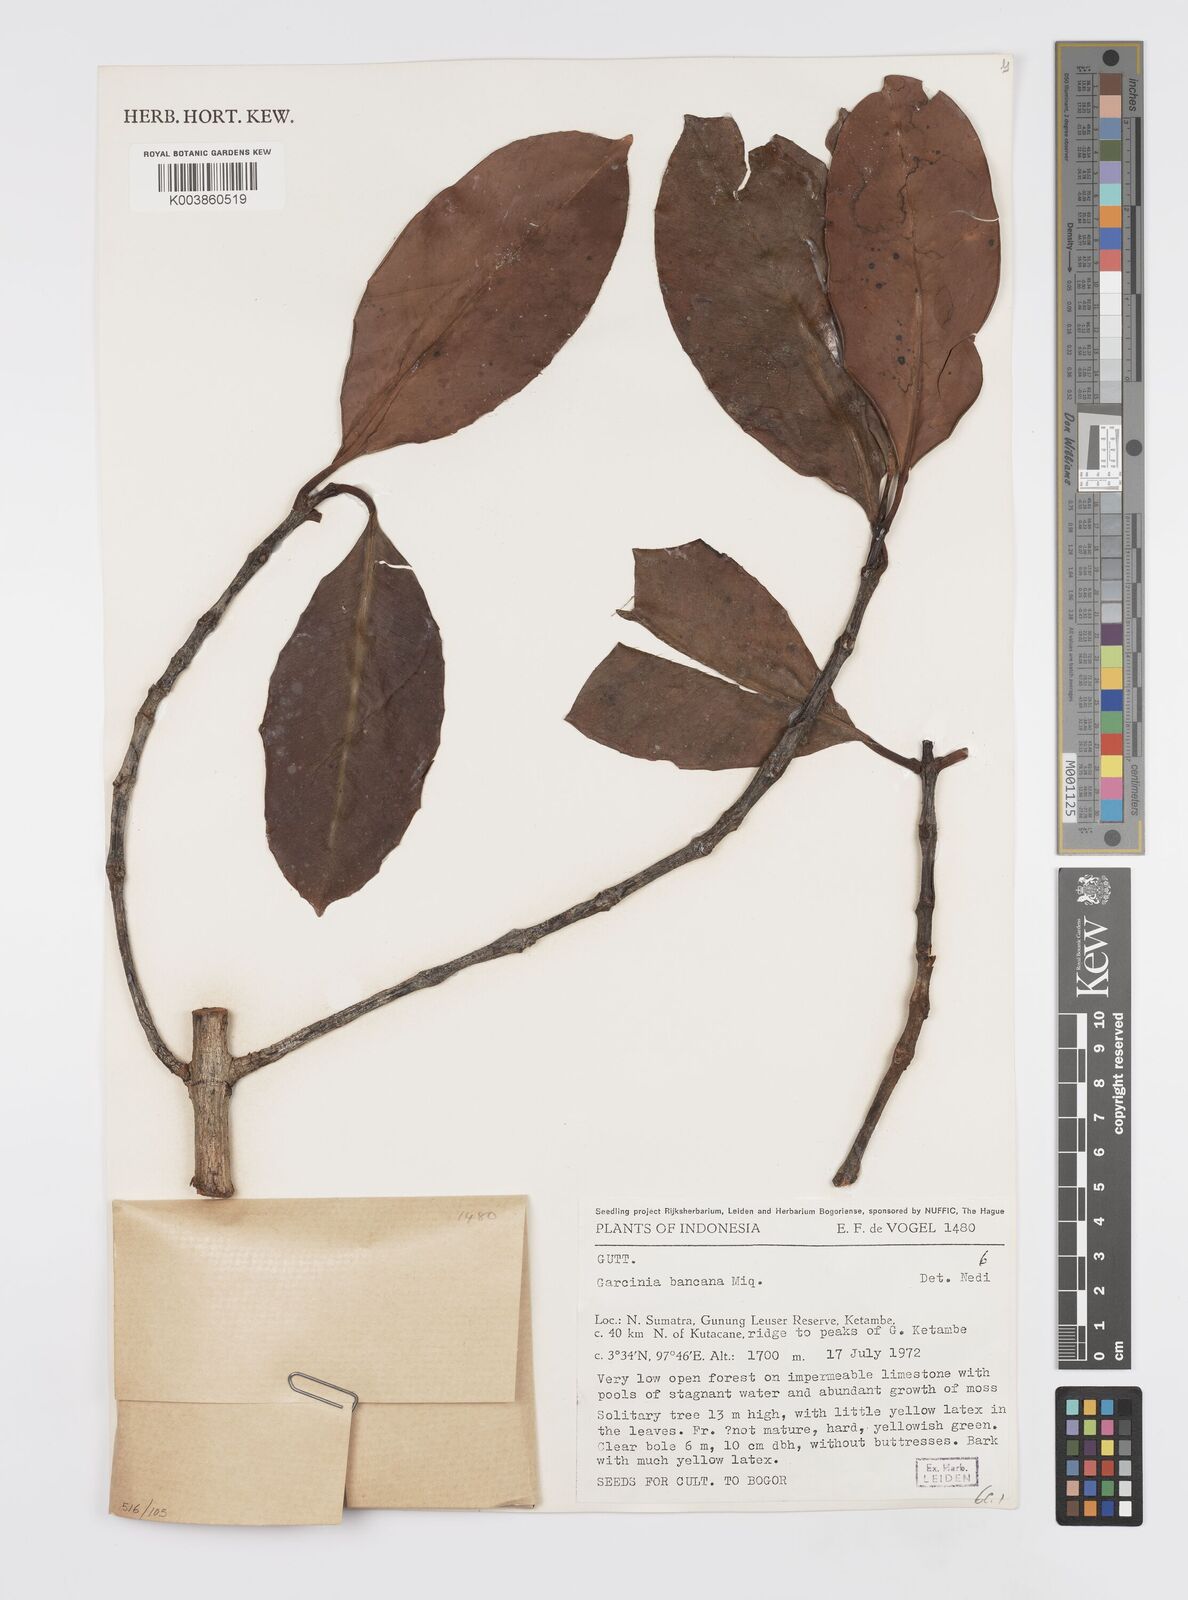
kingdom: Plantae
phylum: Tracheophyta
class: Magnoliopsida
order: Malpighiales
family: Clusiaceae
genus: Garcinia
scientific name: Garcinia bancana
